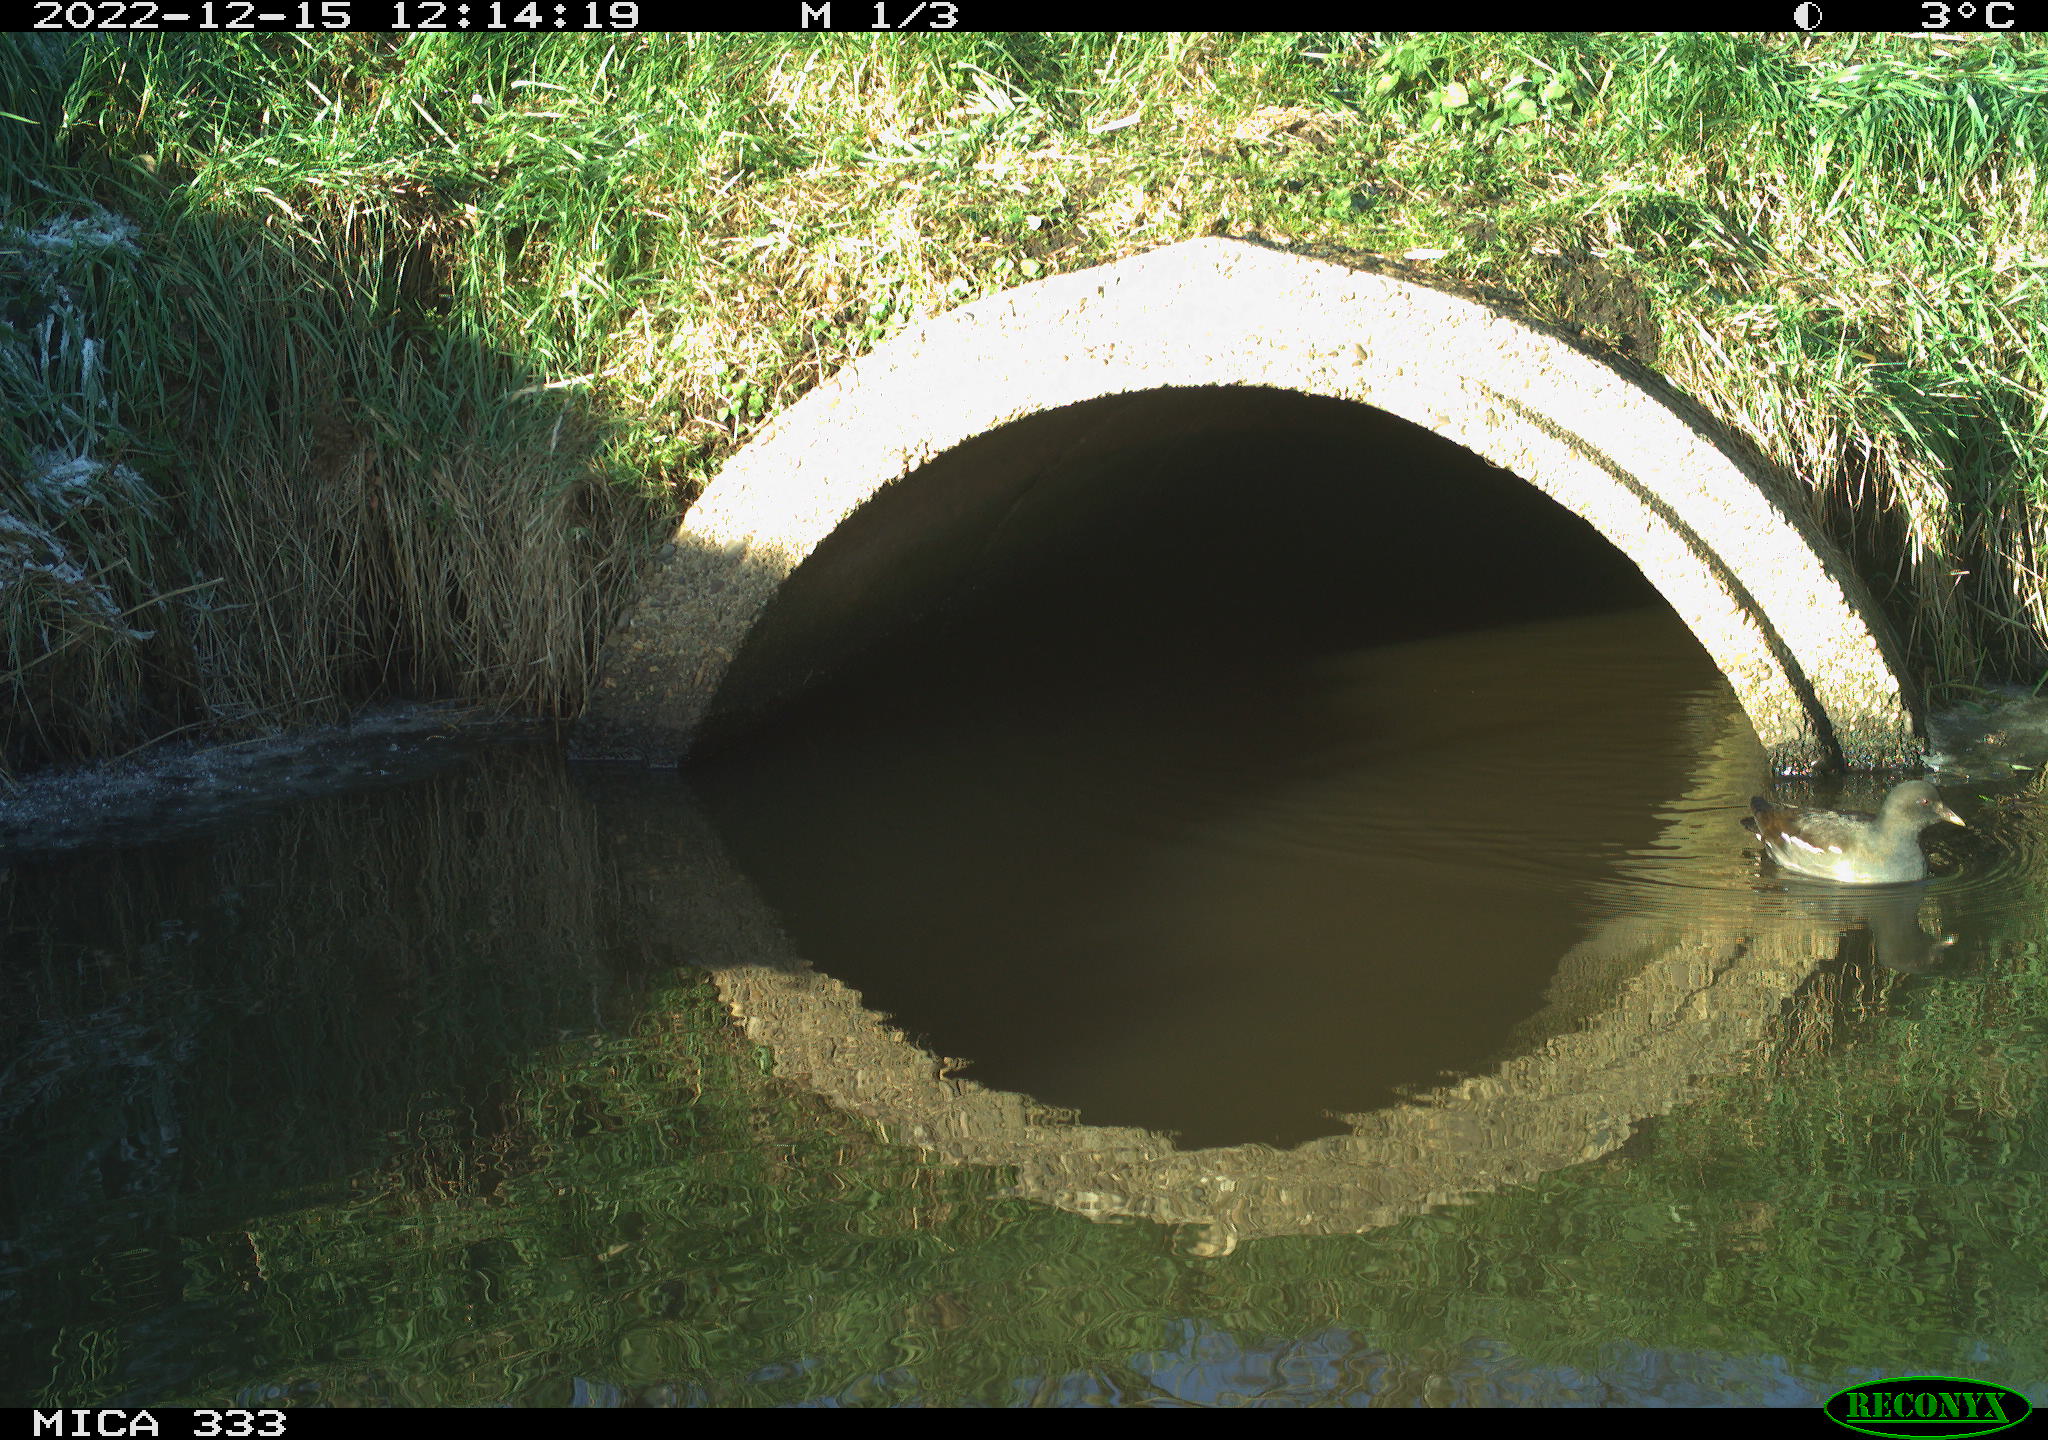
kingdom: Animalia
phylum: Chordata
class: Aves
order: Gruiformes
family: Rallidae
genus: Gallinula
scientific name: Gallinula chloropus
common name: Common moorhen
